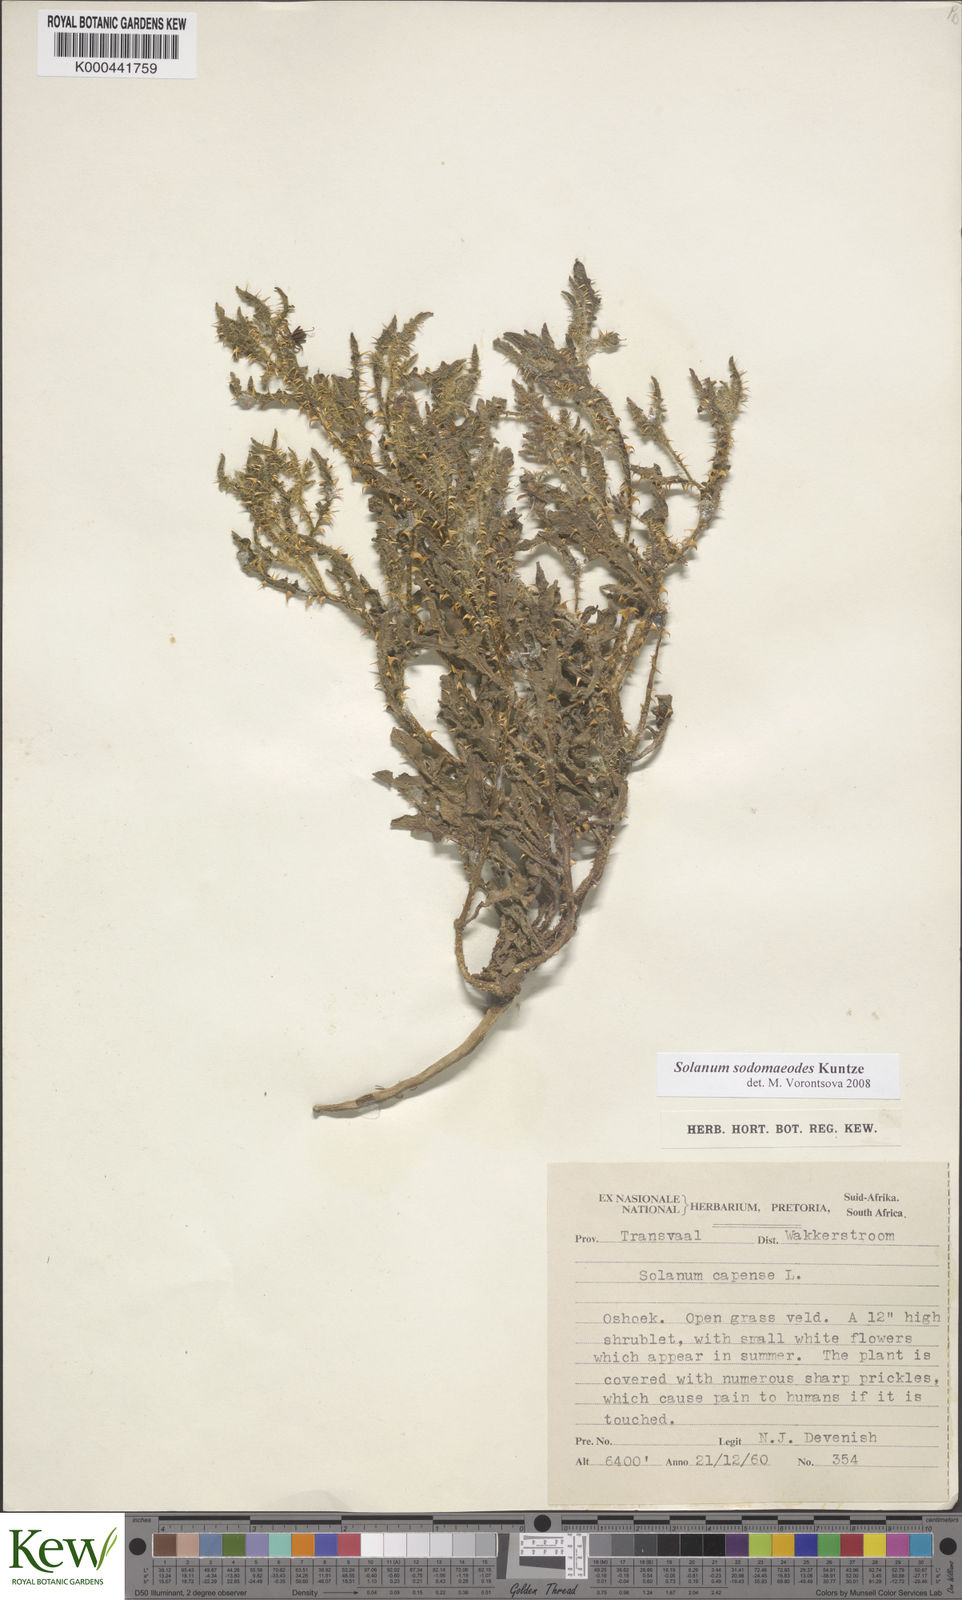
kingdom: Plantae
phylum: Tracheophyta
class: Magnoliopsida
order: Solanales
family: Solanaceae
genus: Solanum
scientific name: Solanum
